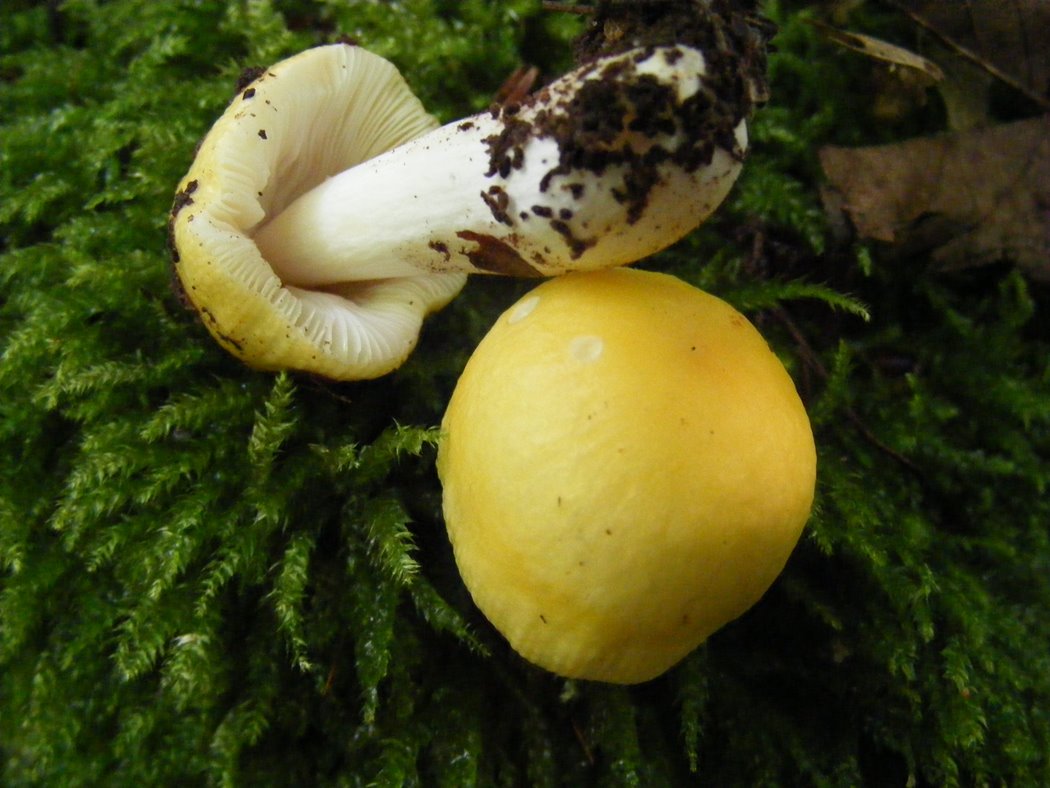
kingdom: Fungi
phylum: Basidiomycota
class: Agaricomycetes
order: Russulales
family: Russulaceae
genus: Russula
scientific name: Russula solaris
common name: sol-skørhat
